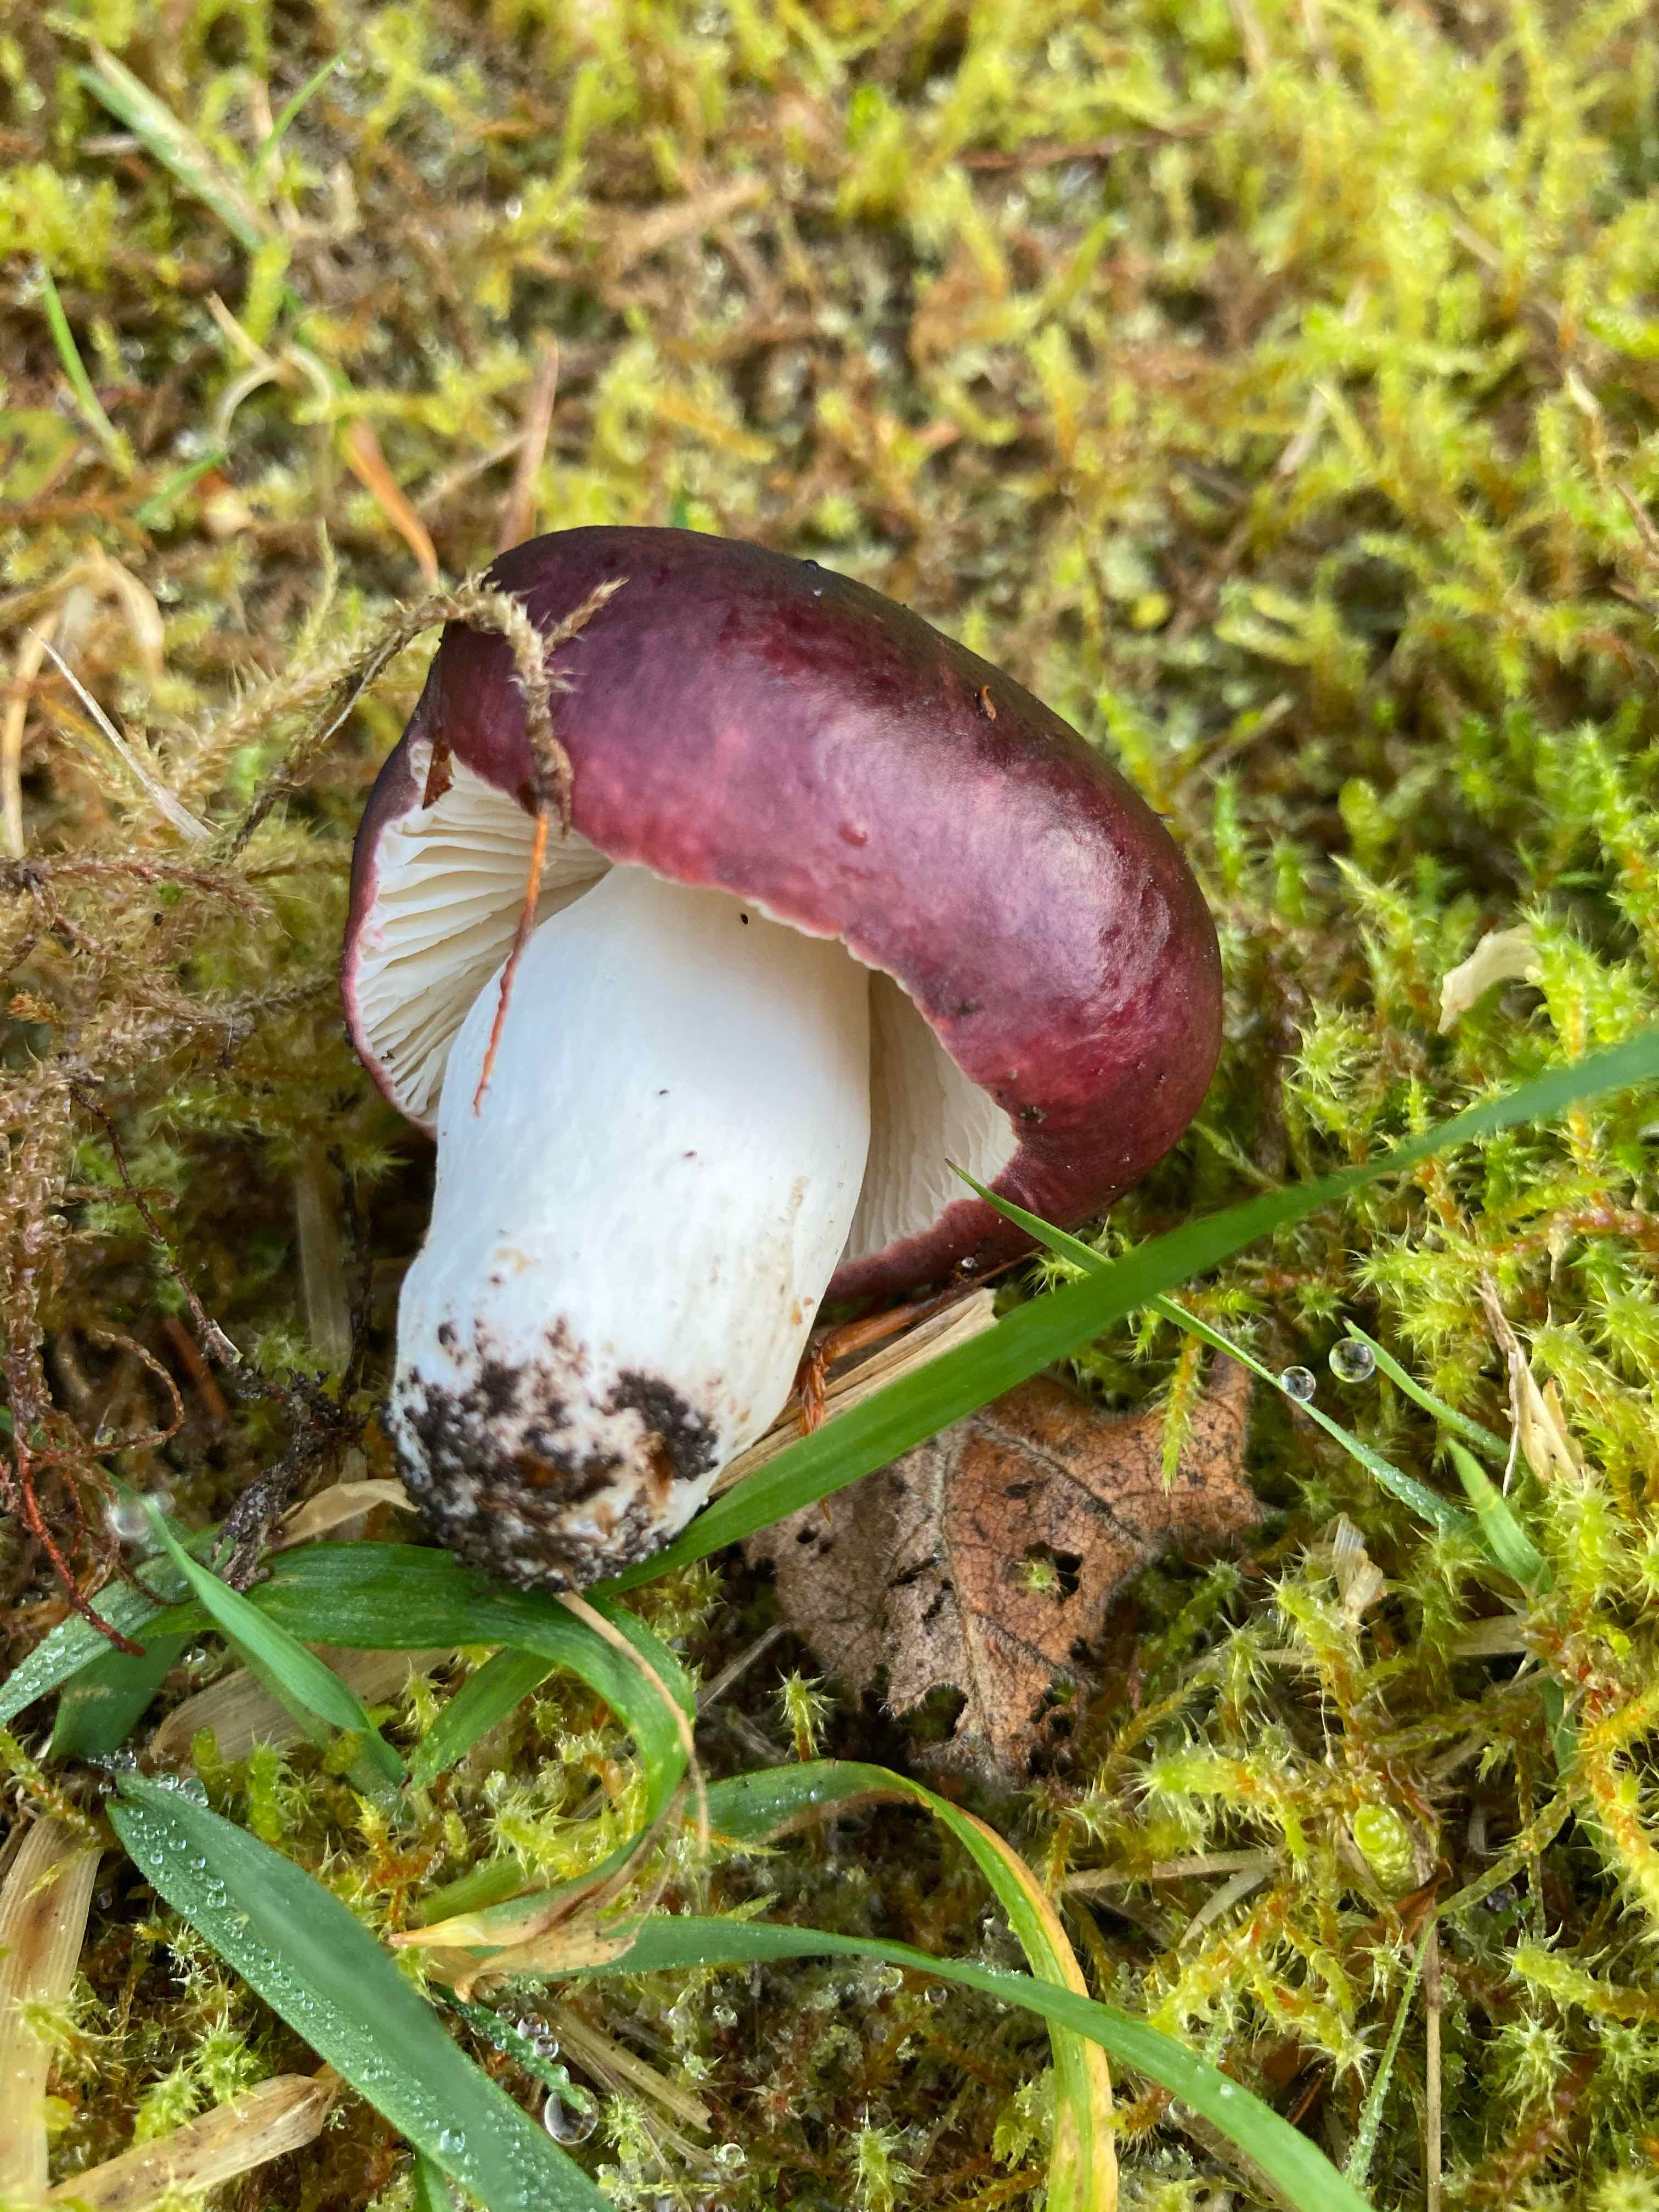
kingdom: Fungi
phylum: Basidiomycota
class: Agaricomycetes
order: Russulales
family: Russulaceae
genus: Russula
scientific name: Russula
